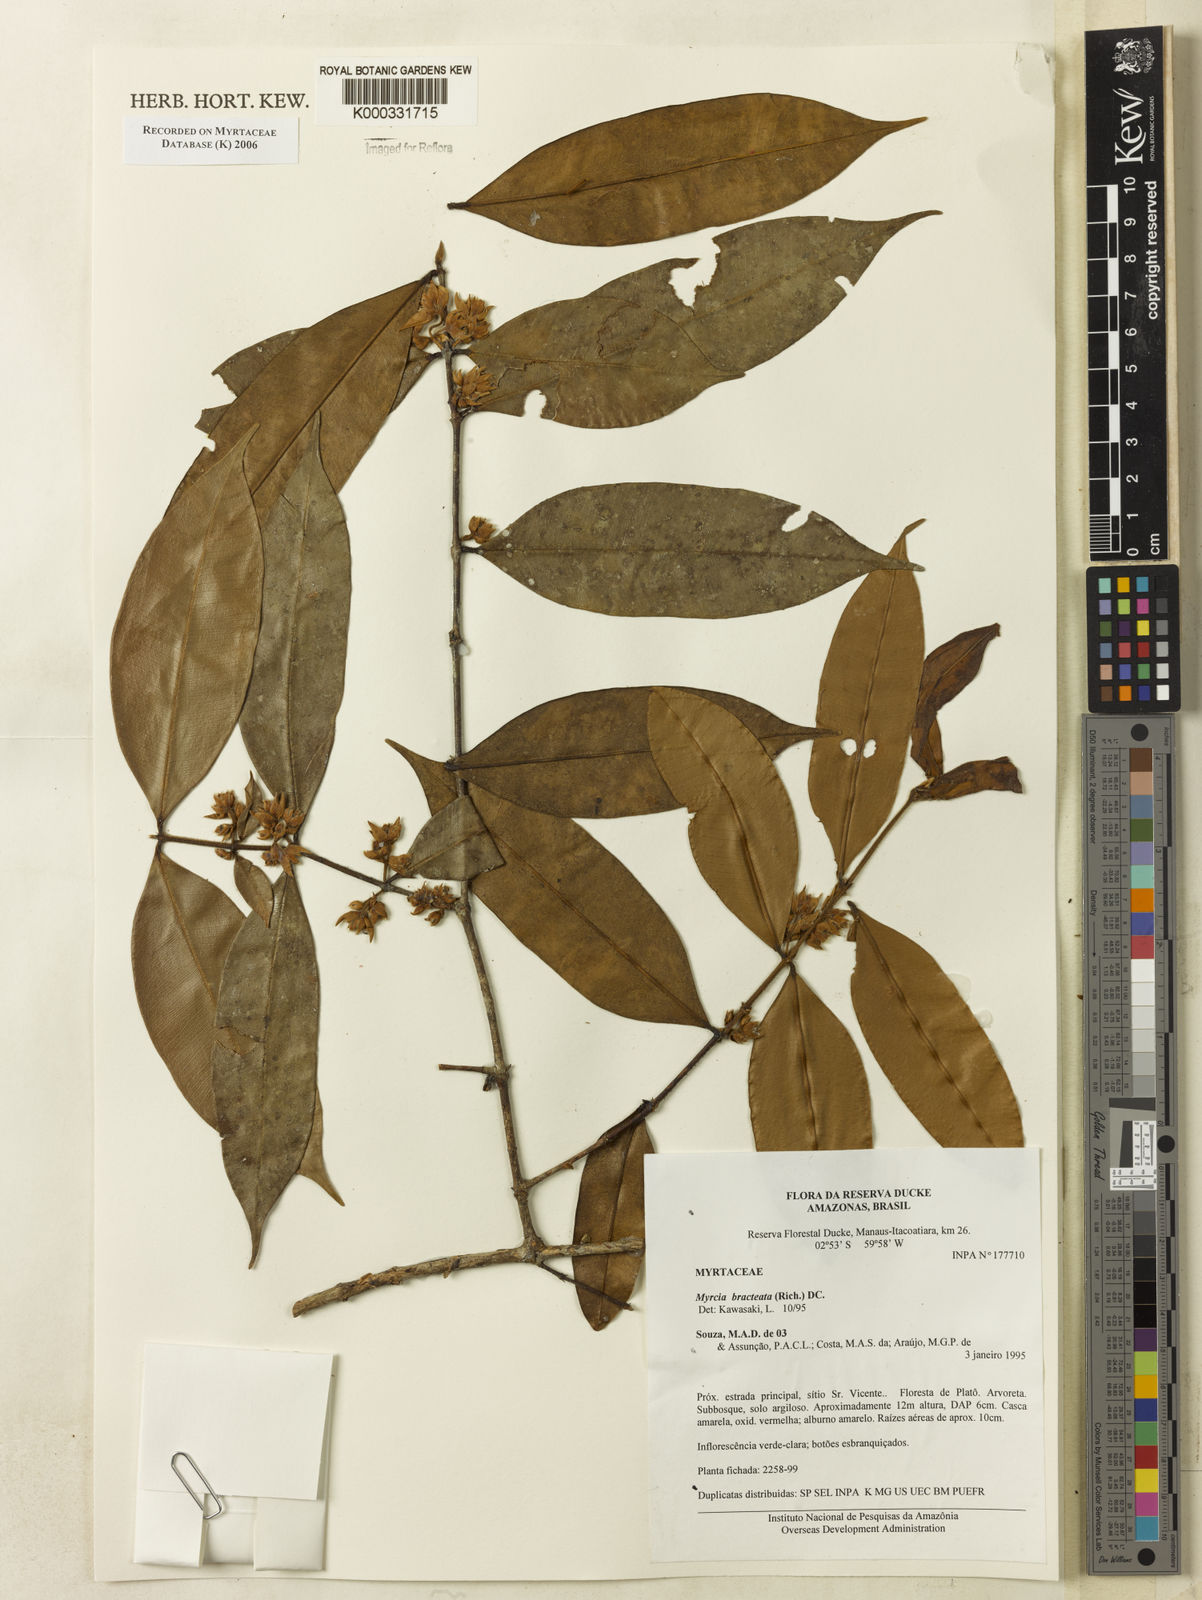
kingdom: Plantae
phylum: Tracheophyta
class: Magnoliopsida
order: Myrtales
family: Myrtaceae
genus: Myrcia
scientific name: Myrcia bracteata
